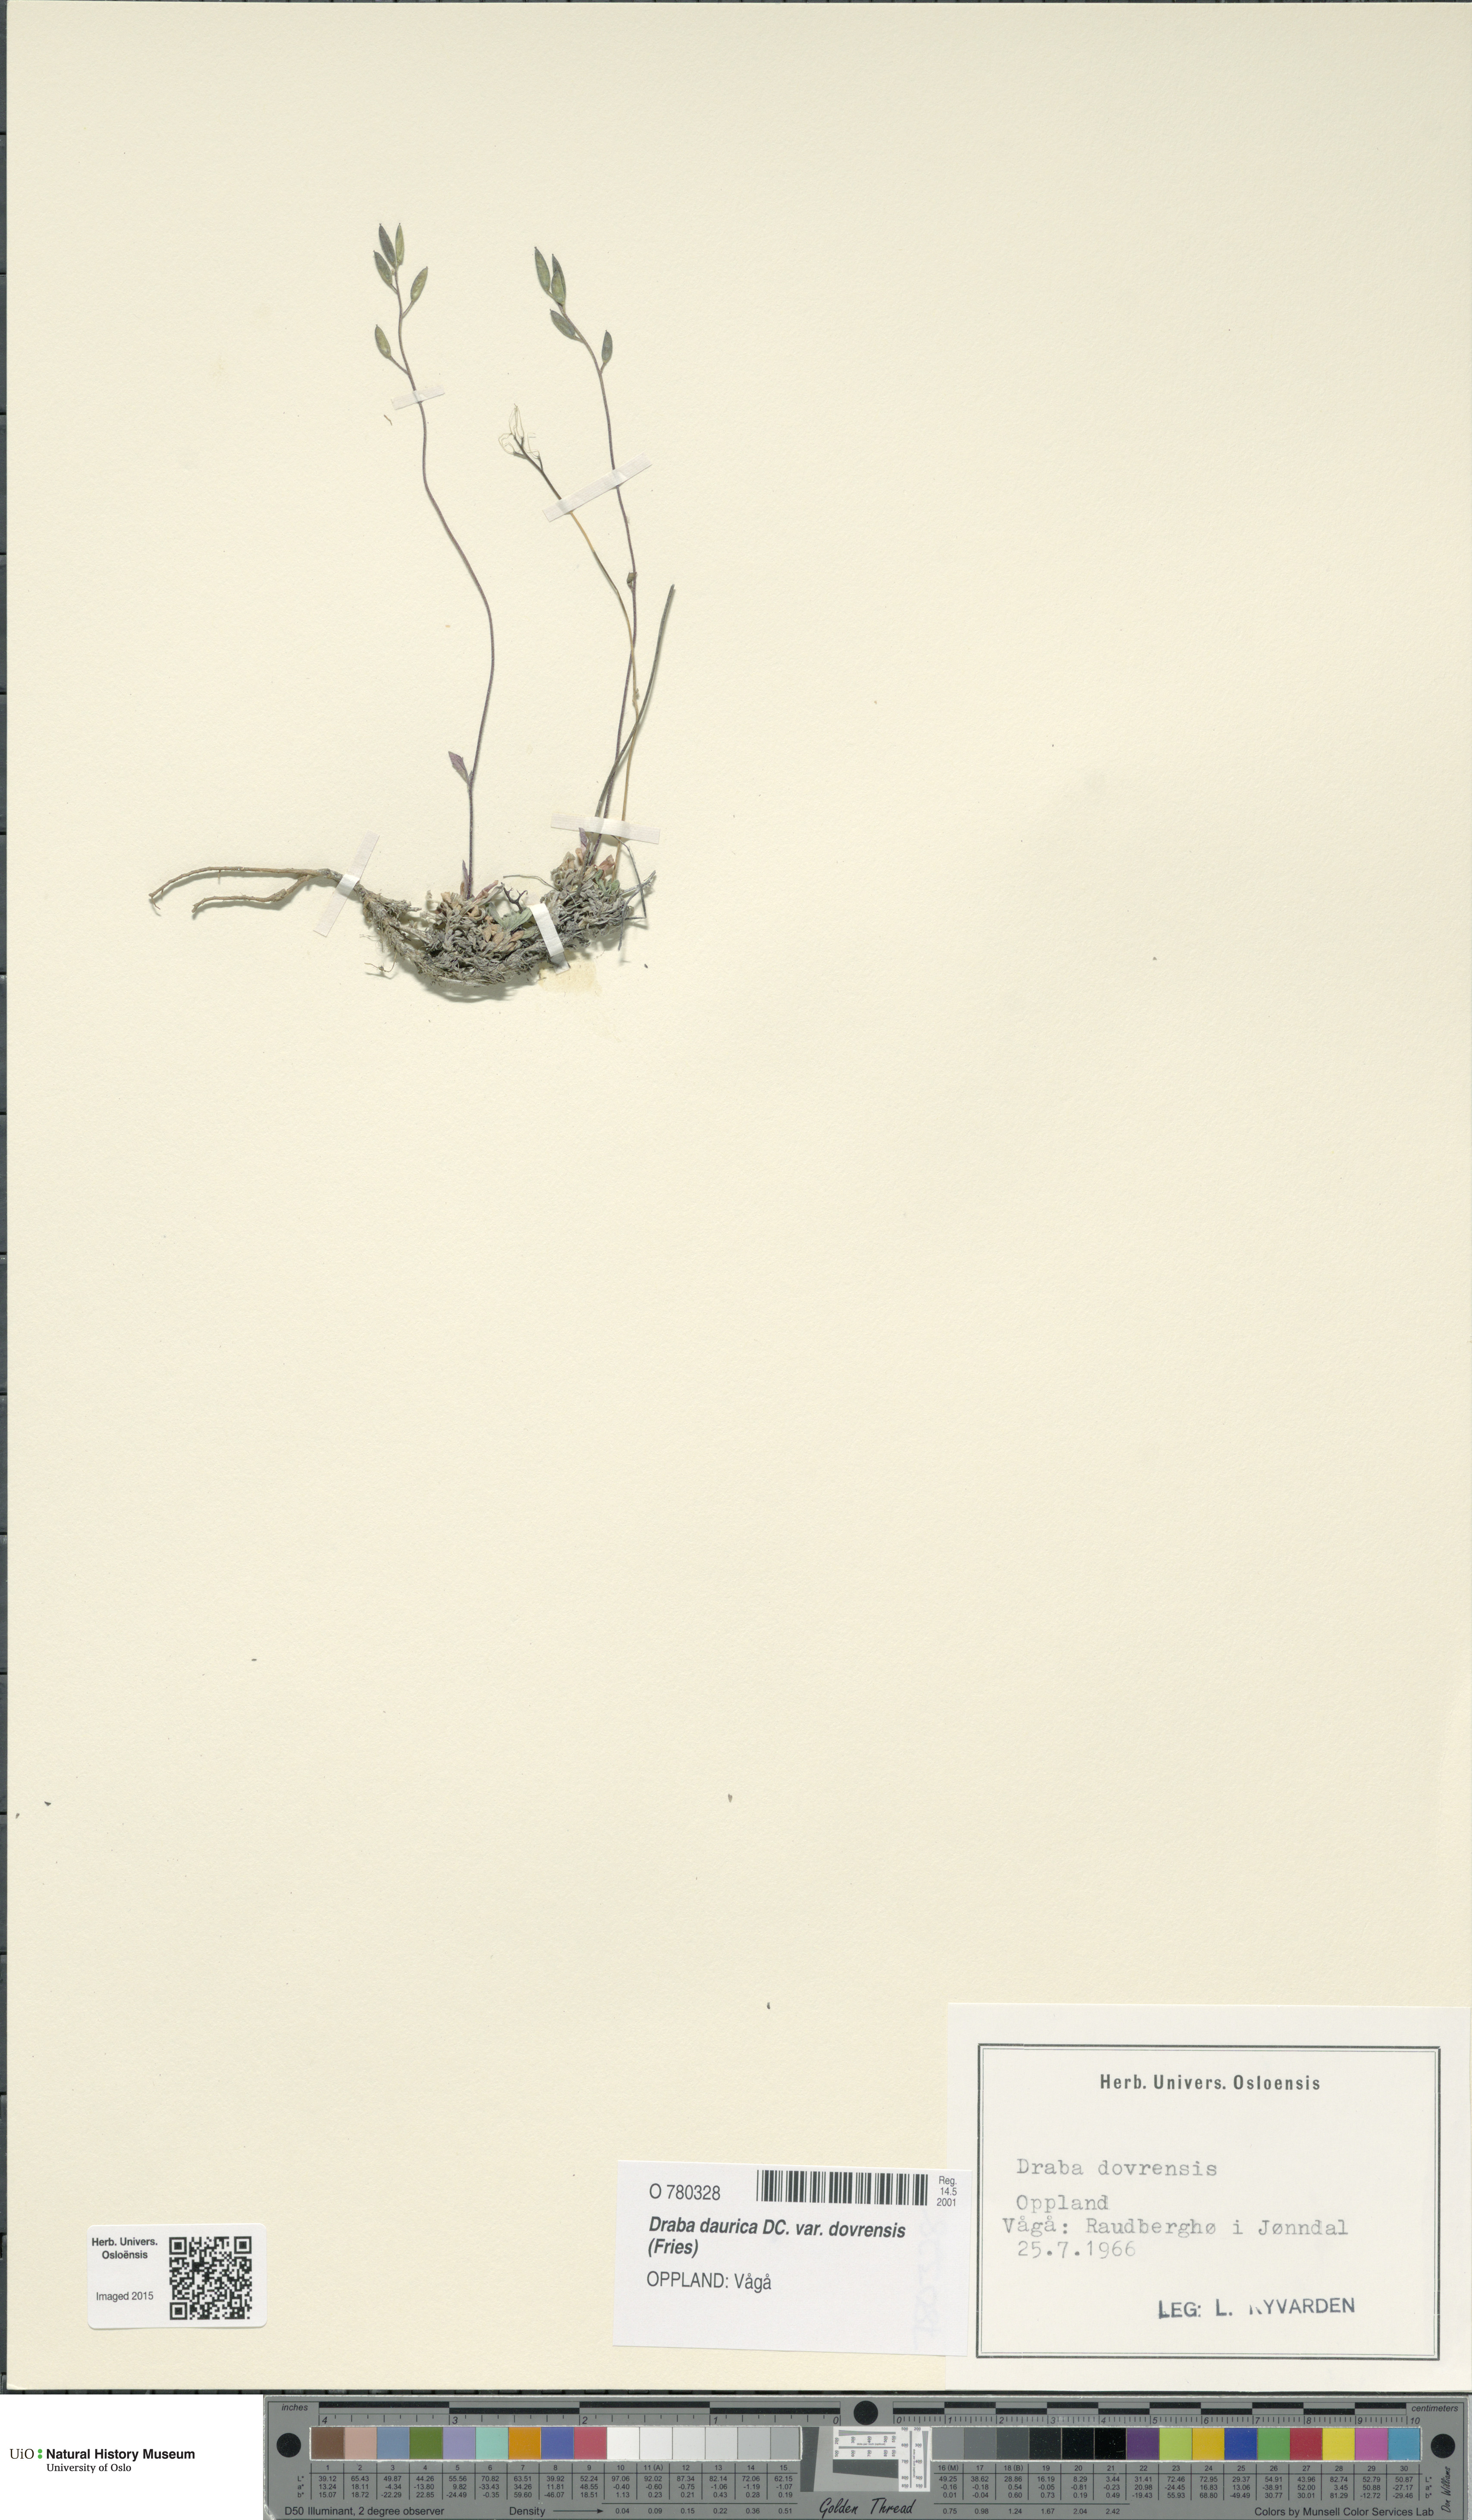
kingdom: Plantae
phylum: Tracheophyta
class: Magnoliopsida
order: Brassicales
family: Brassicaceae
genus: Draba
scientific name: Draba glabella
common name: Glaucous draba
